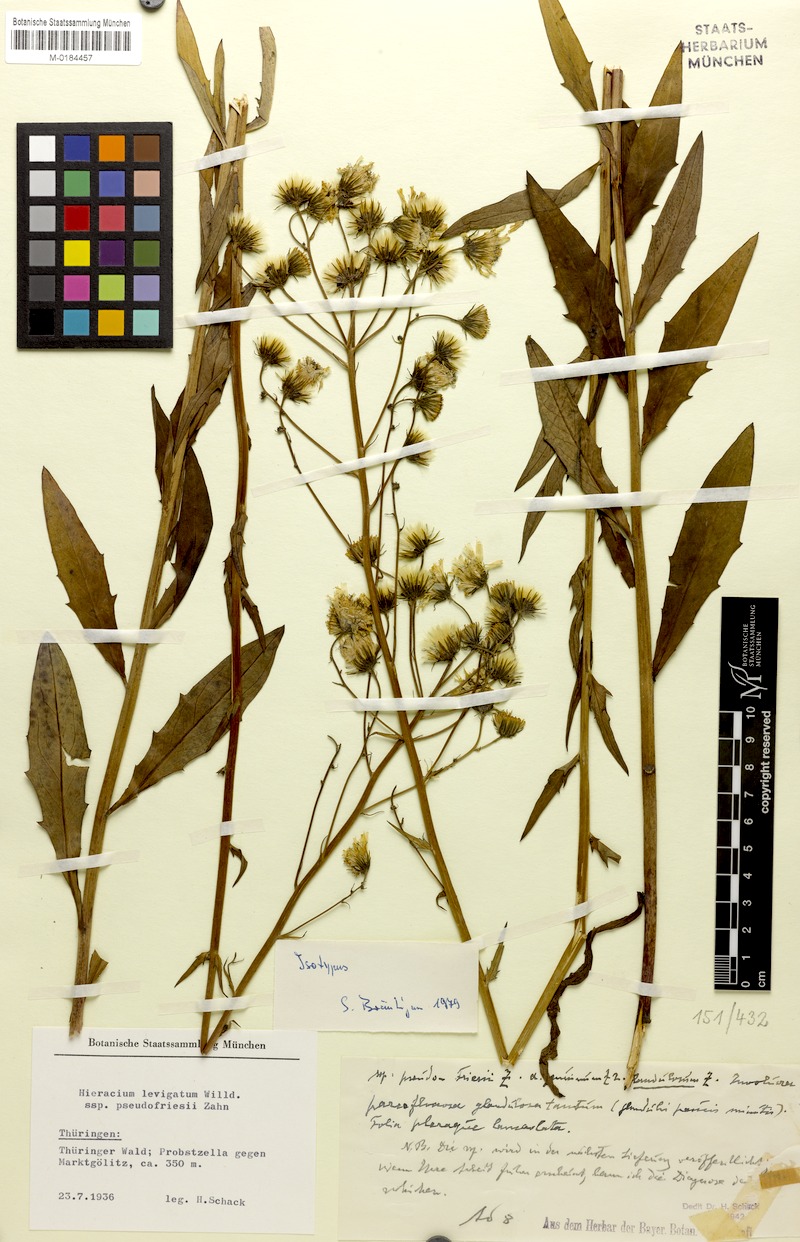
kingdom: Plantae
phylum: Tracheophyta
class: Magnoliopsida
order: Asterales
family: Asteraceae
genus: Hieracium
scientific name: Hieracium laevigatum
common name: Smooth hawkweed
